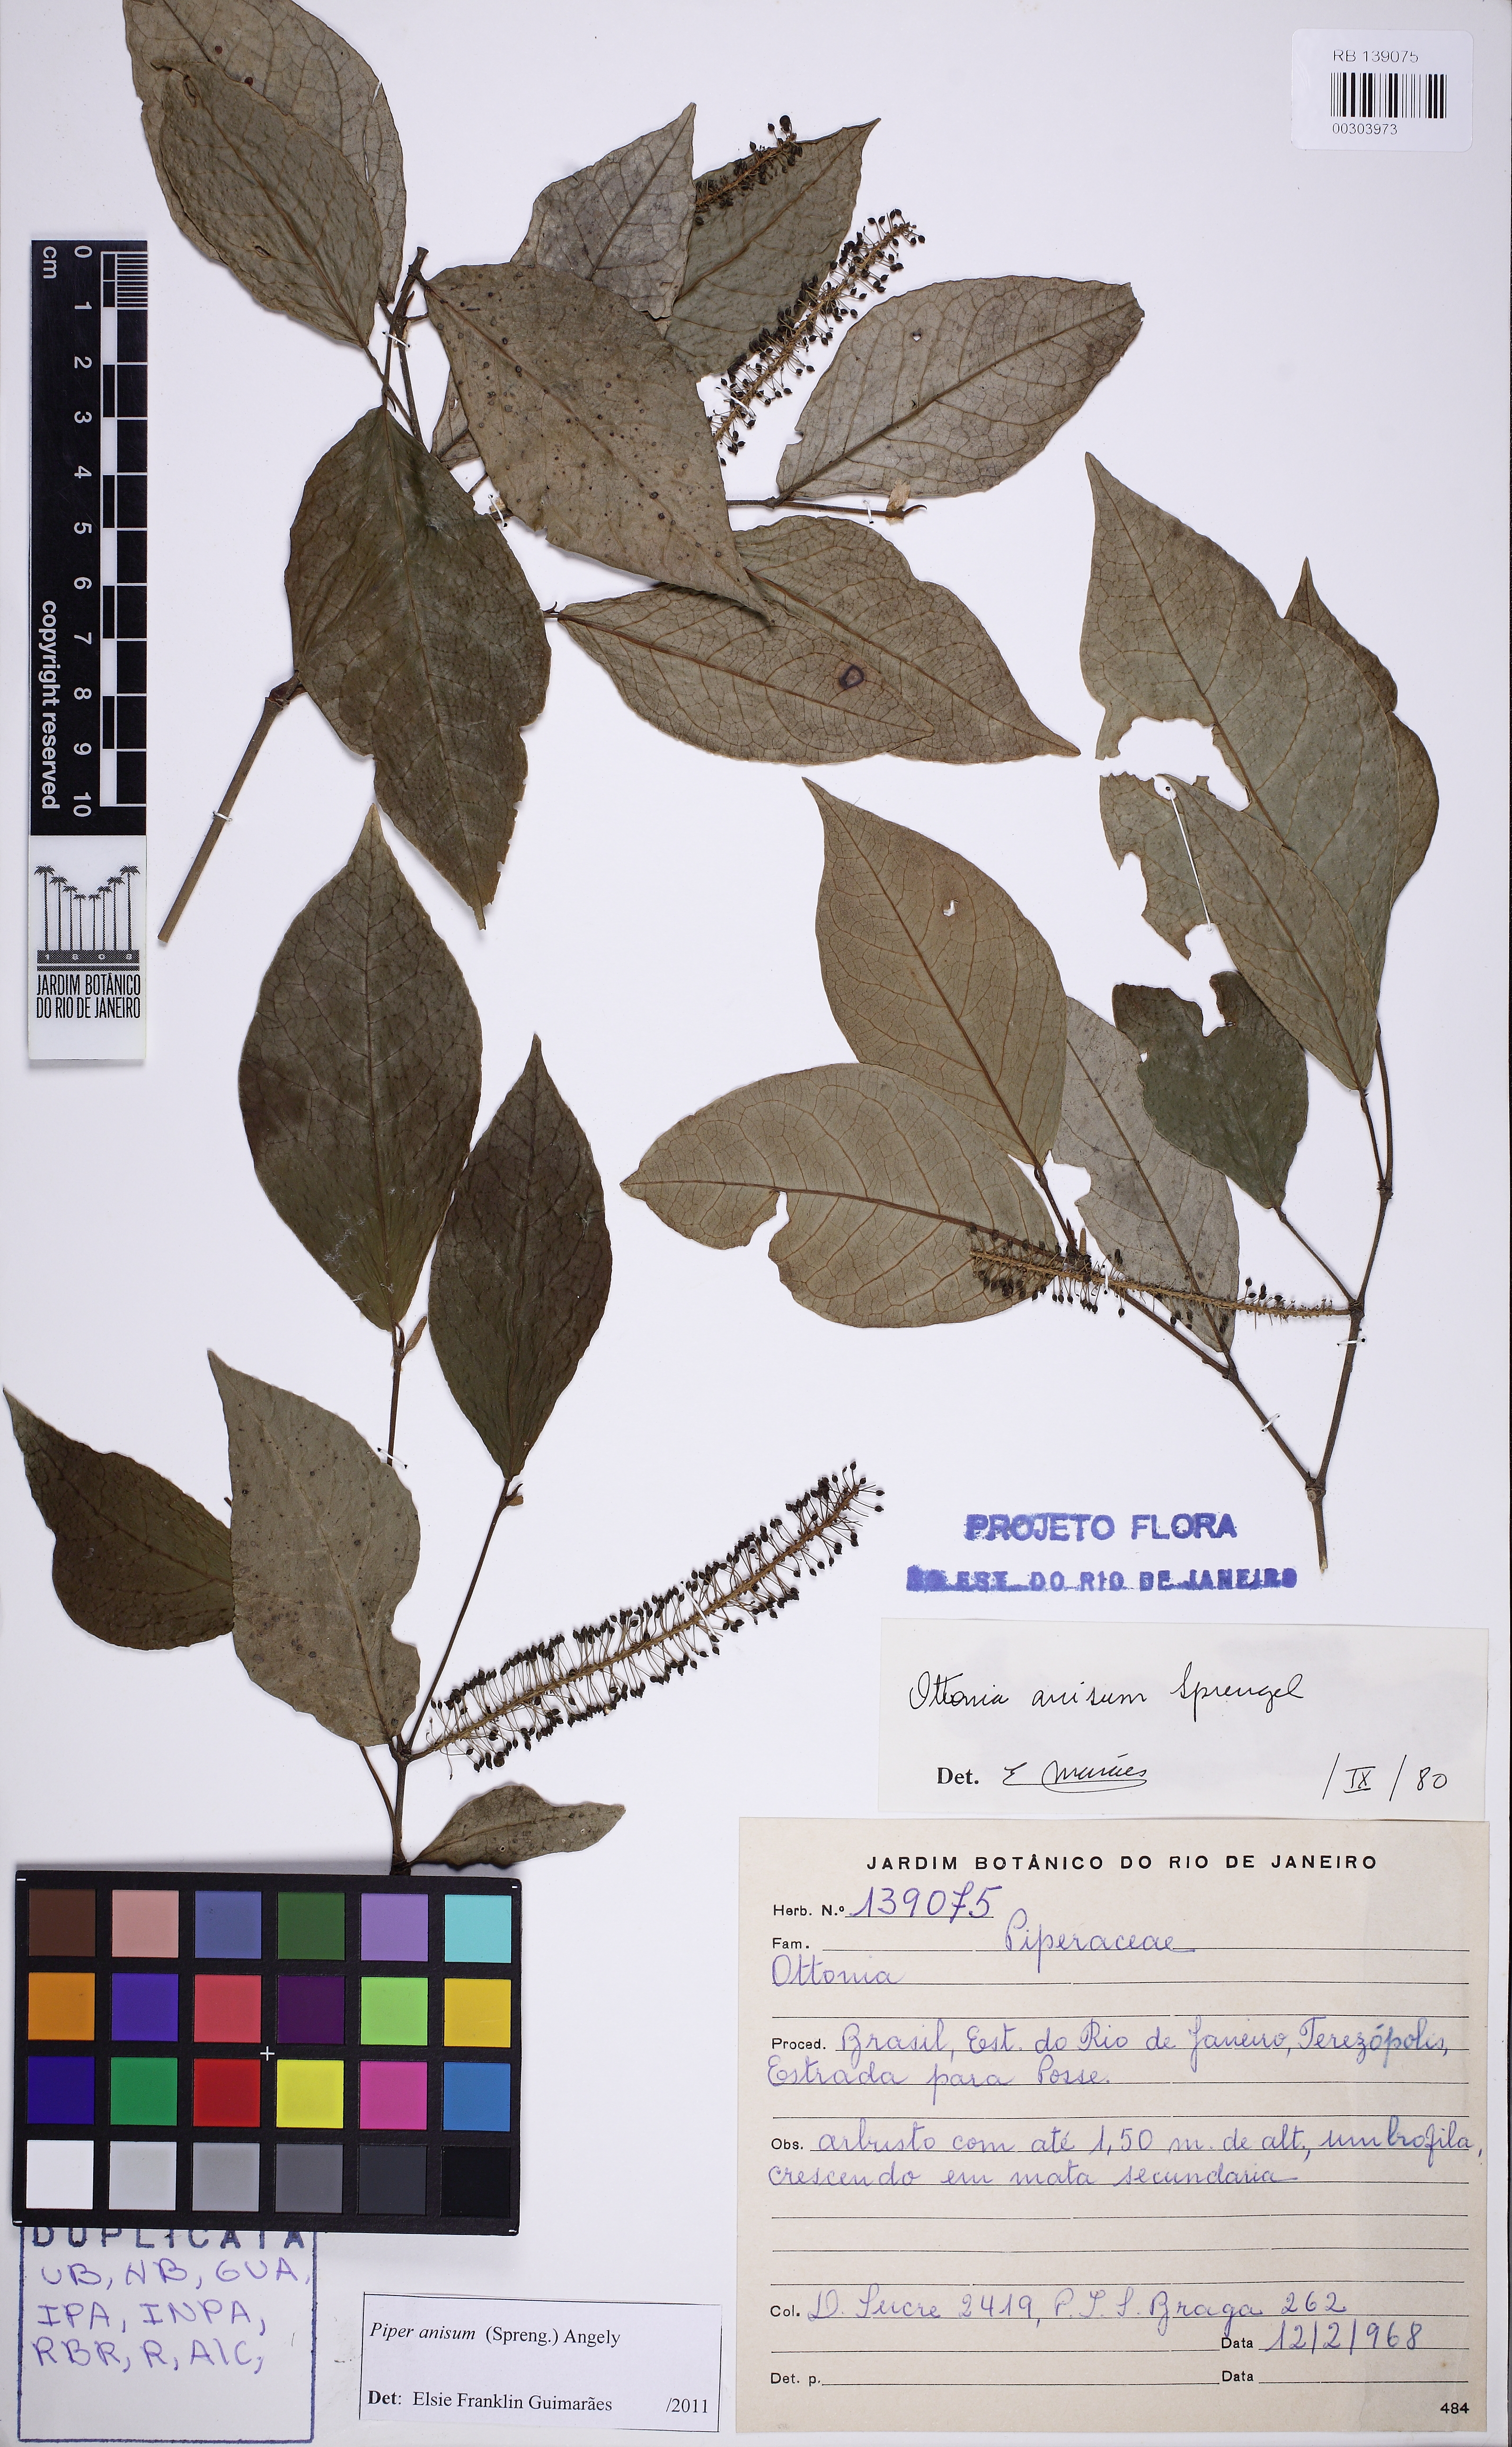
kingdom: Plantae
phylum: Tracheophyta
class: Magnoliopsida
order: Piperales
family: Piperaceae
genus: Piper
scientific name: Piper anisum
